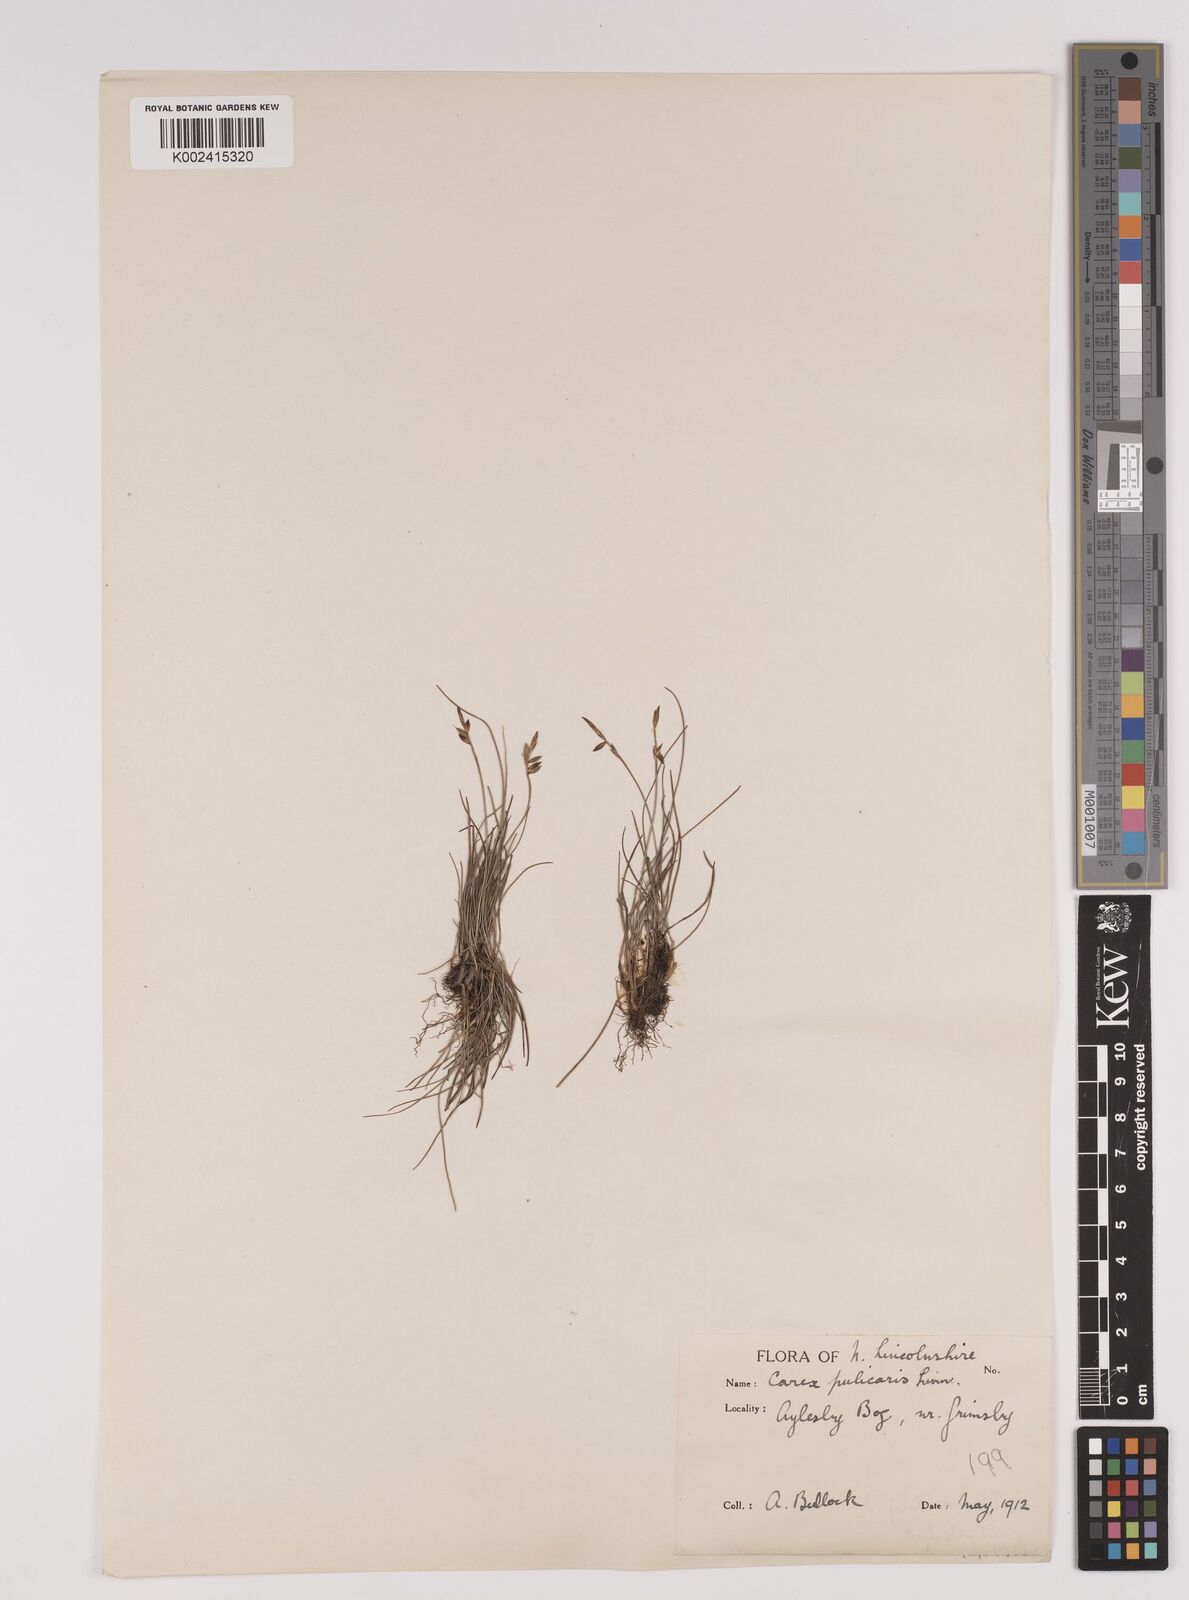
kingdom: Plantae
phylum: Tracheophyta
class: Liliopsida
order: Poales
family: Cyperaceae
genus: Carex
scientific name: Carex pulicaris
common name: Flea sedge
